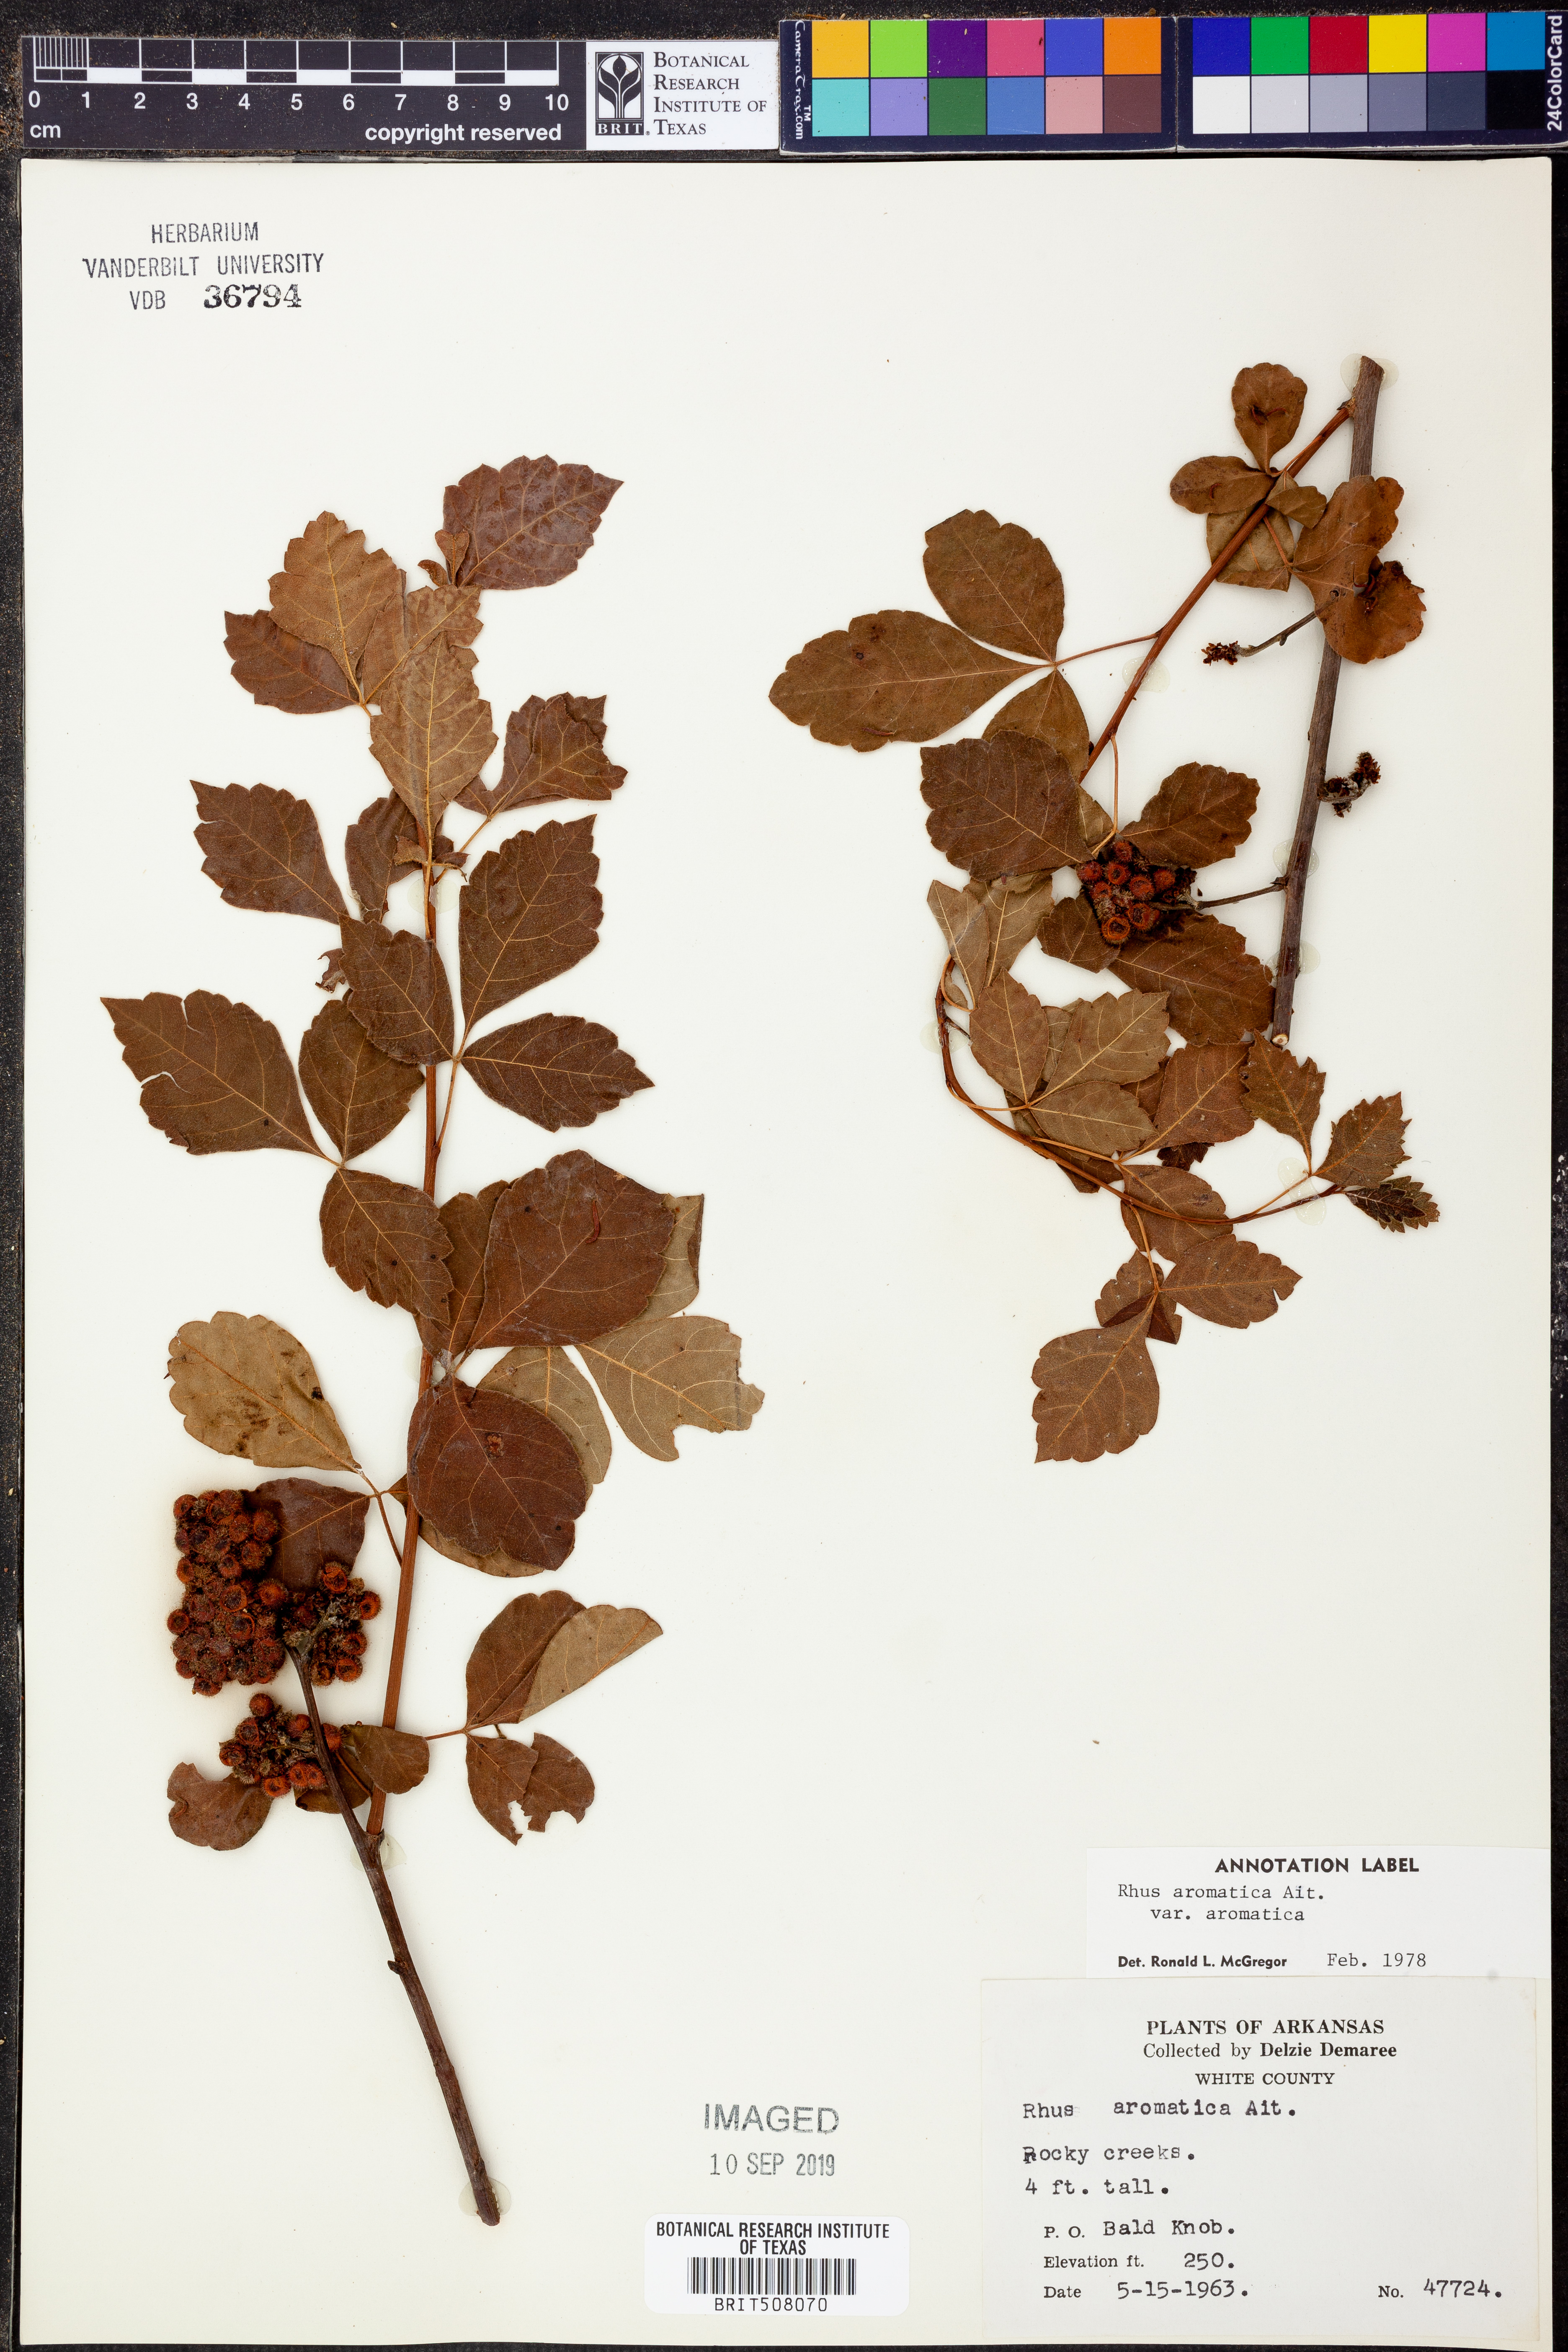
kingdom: Plantae
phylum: Tracheophyta
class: Magnoliopsida
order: Sapindales
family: Anacardiaceae
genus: Rhus
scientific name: Rhus aromatica
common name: Aromatic sumac
